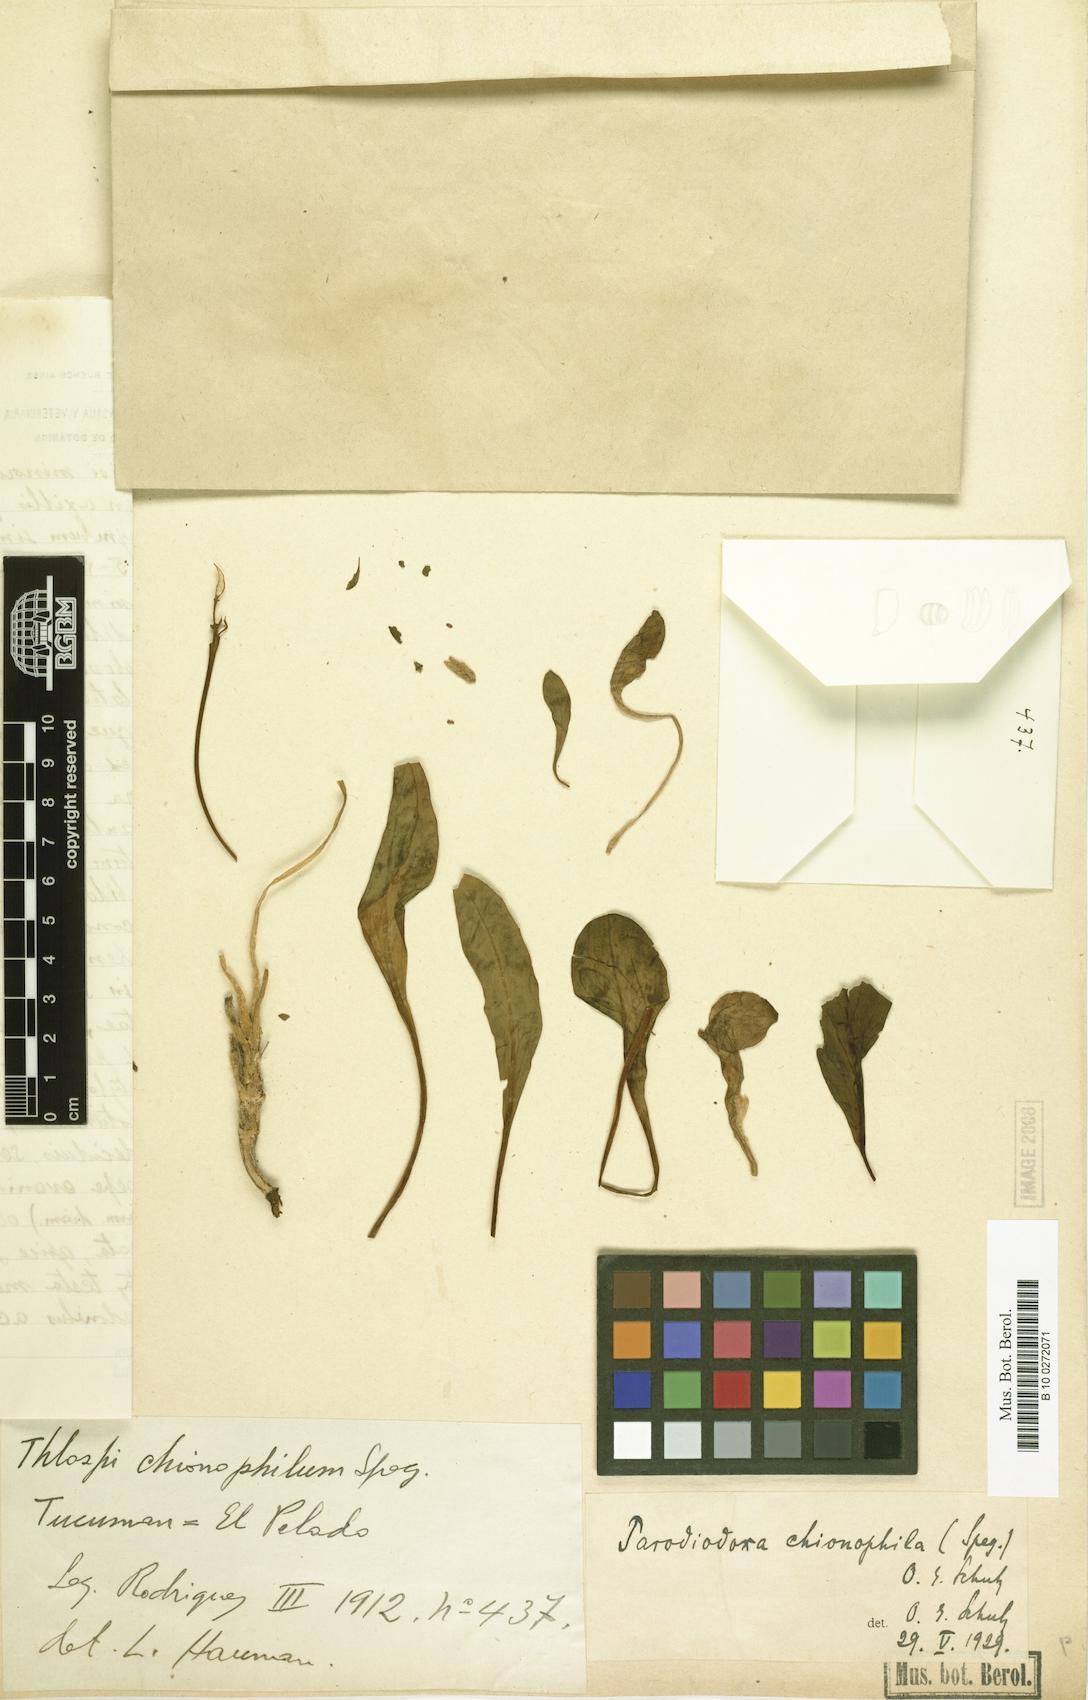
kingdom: Plantae
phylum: Tracheophyta
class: Magnoliopsida
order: Brassicales
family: Brassicaceae
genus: Parodiodoxa
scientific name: Parodiodoxa chionophila
